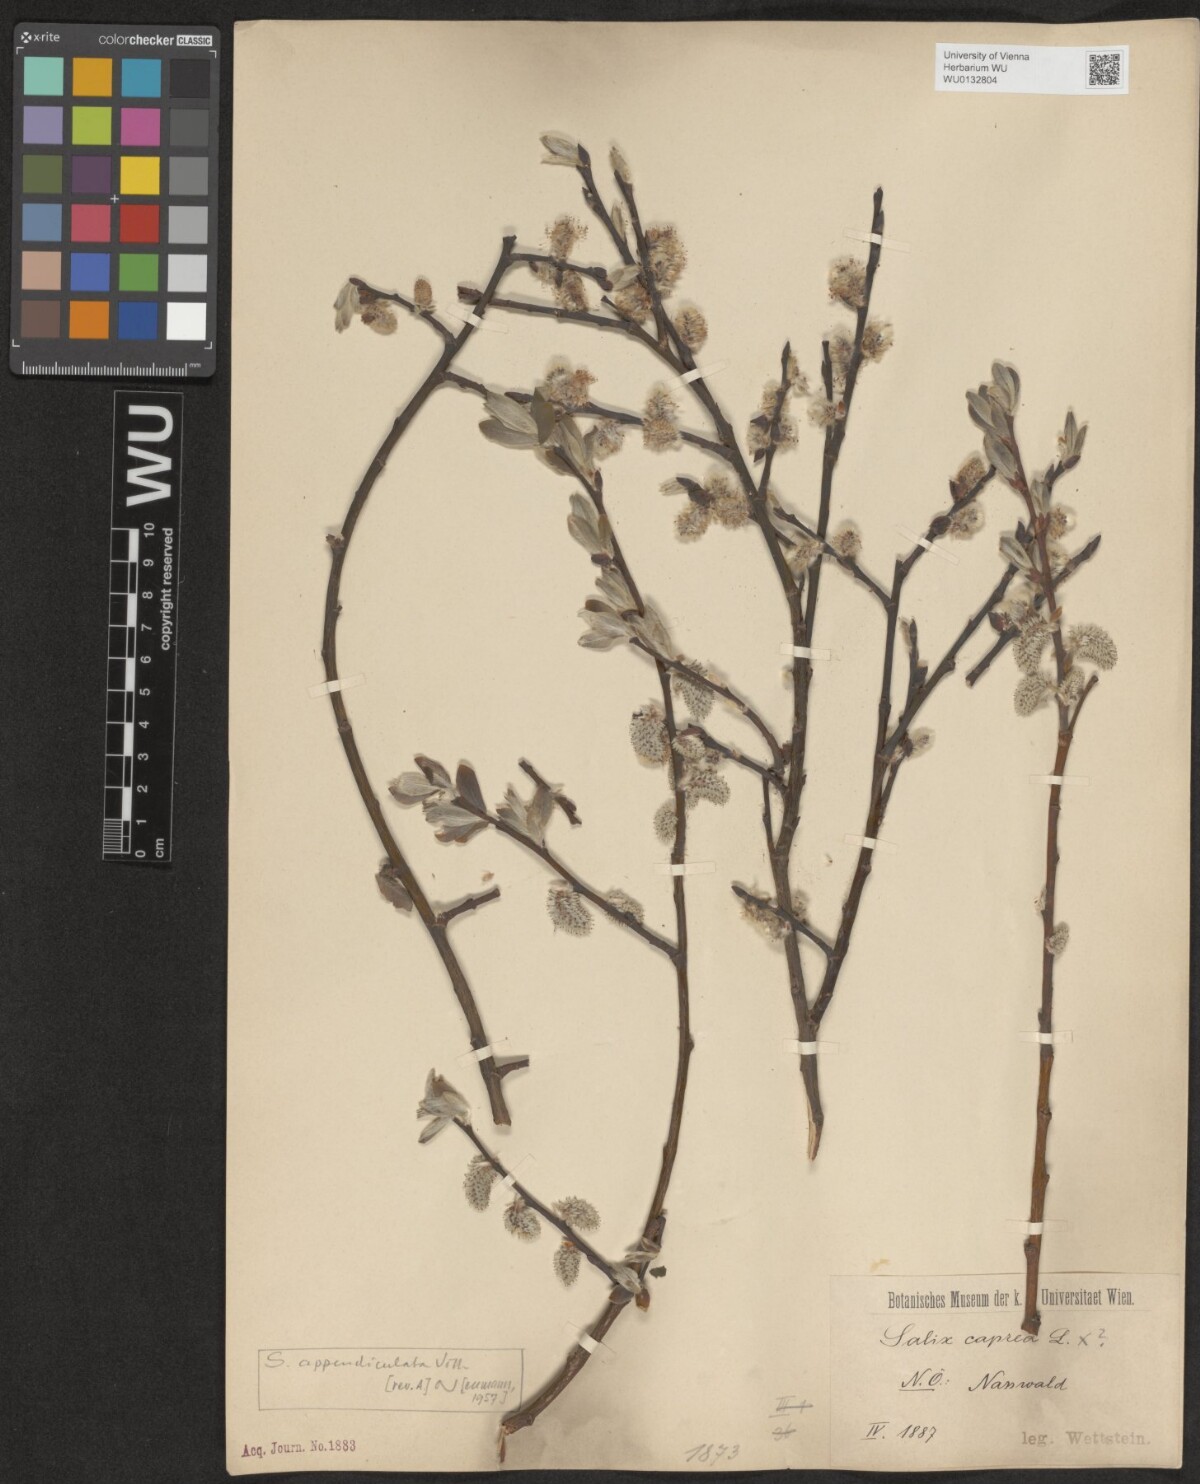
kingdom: Plantae
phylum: Tracheophyta
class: Magnoliopsida
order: Malpighiales
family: Salicaceae
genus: Salix
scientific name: Salix appendiculata
